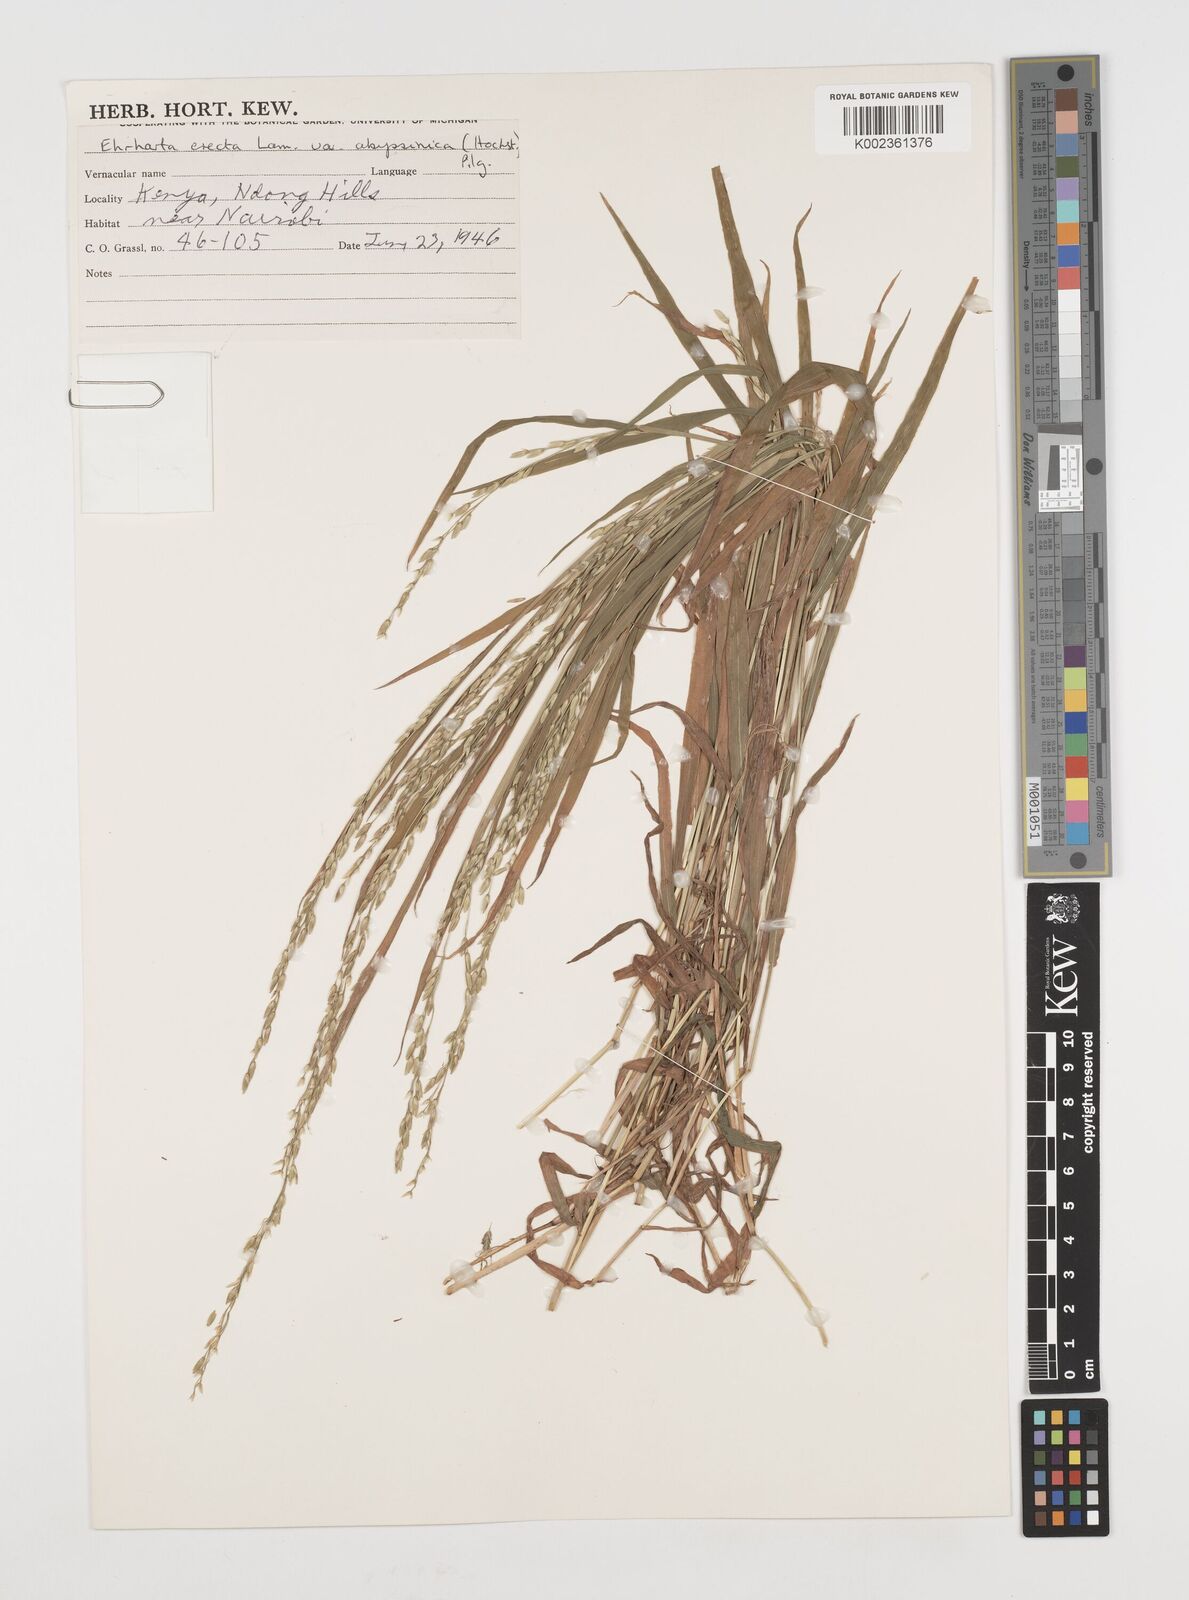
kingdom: Plantae
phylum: Tracheophyta
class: Liliopsida
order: Poales
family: Poaceae
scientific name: Poaceae
